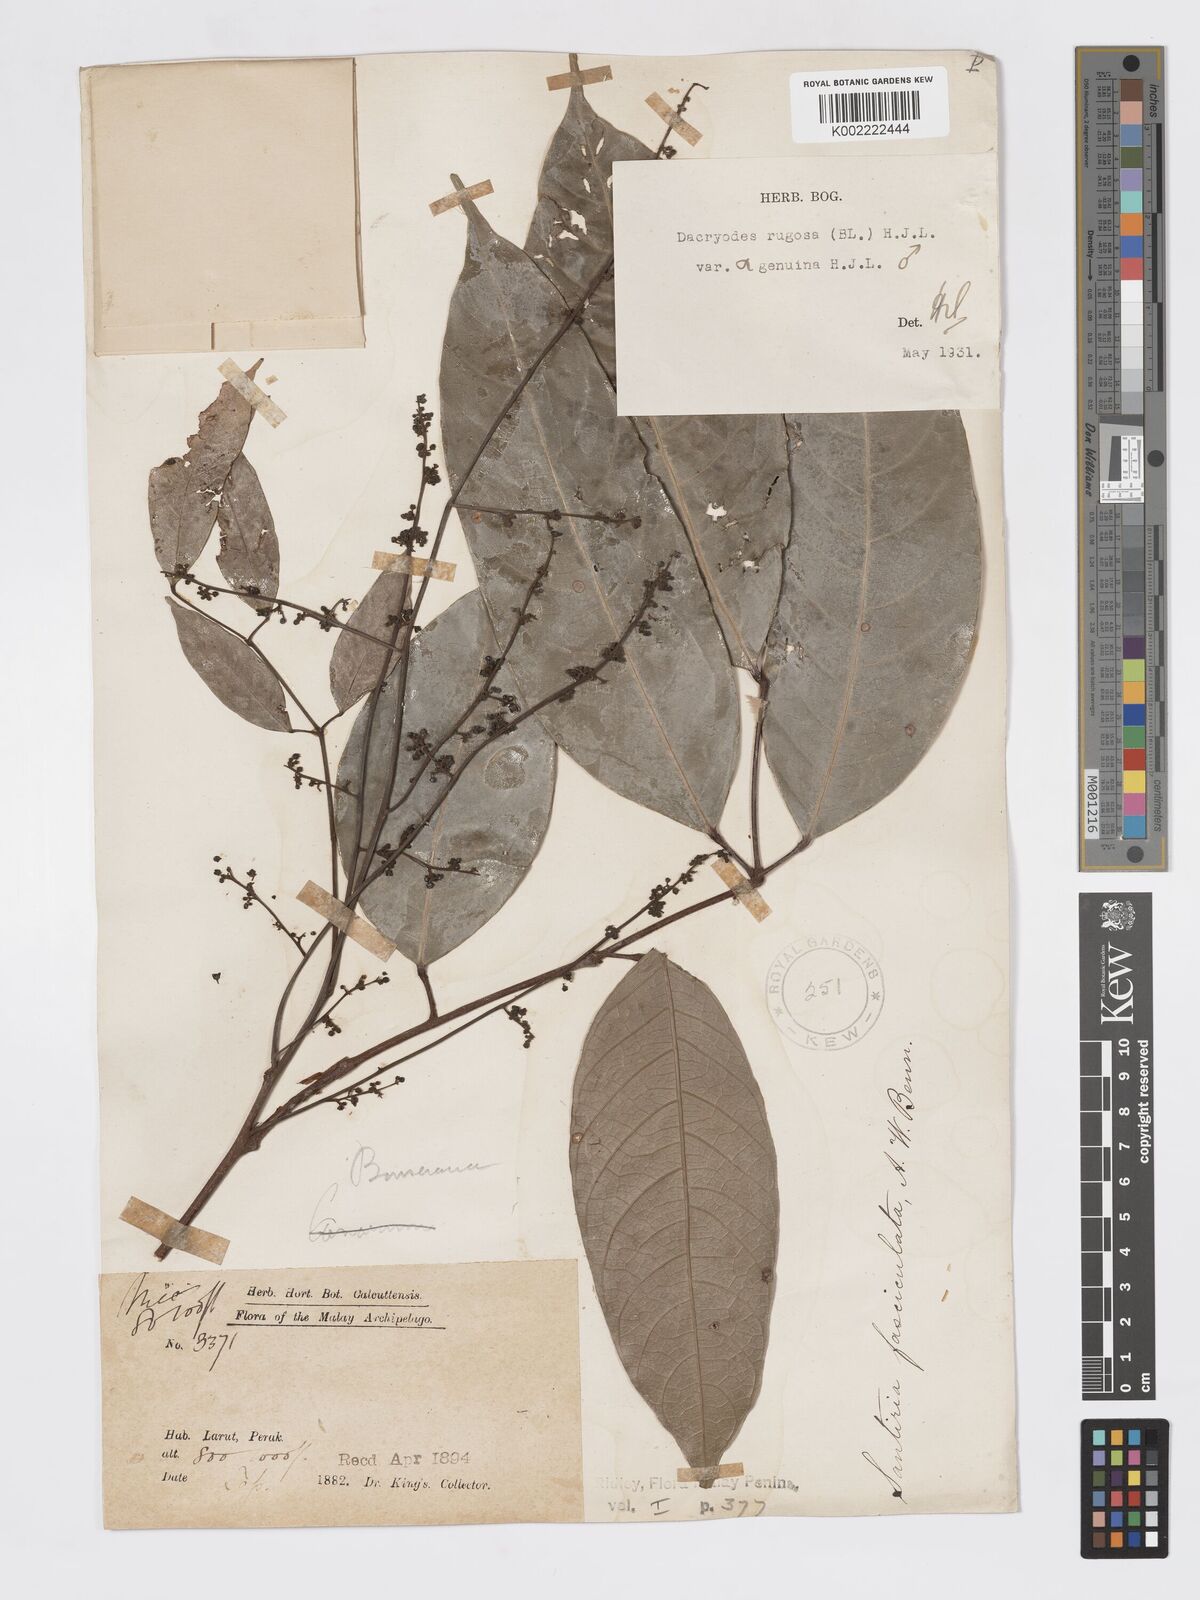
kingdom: Plantae
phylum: Tracheophyta
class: Magnoliopsida
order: Sapindales
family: Burseraceae
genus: Dacryodes
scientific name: Dacryodes rugosa
